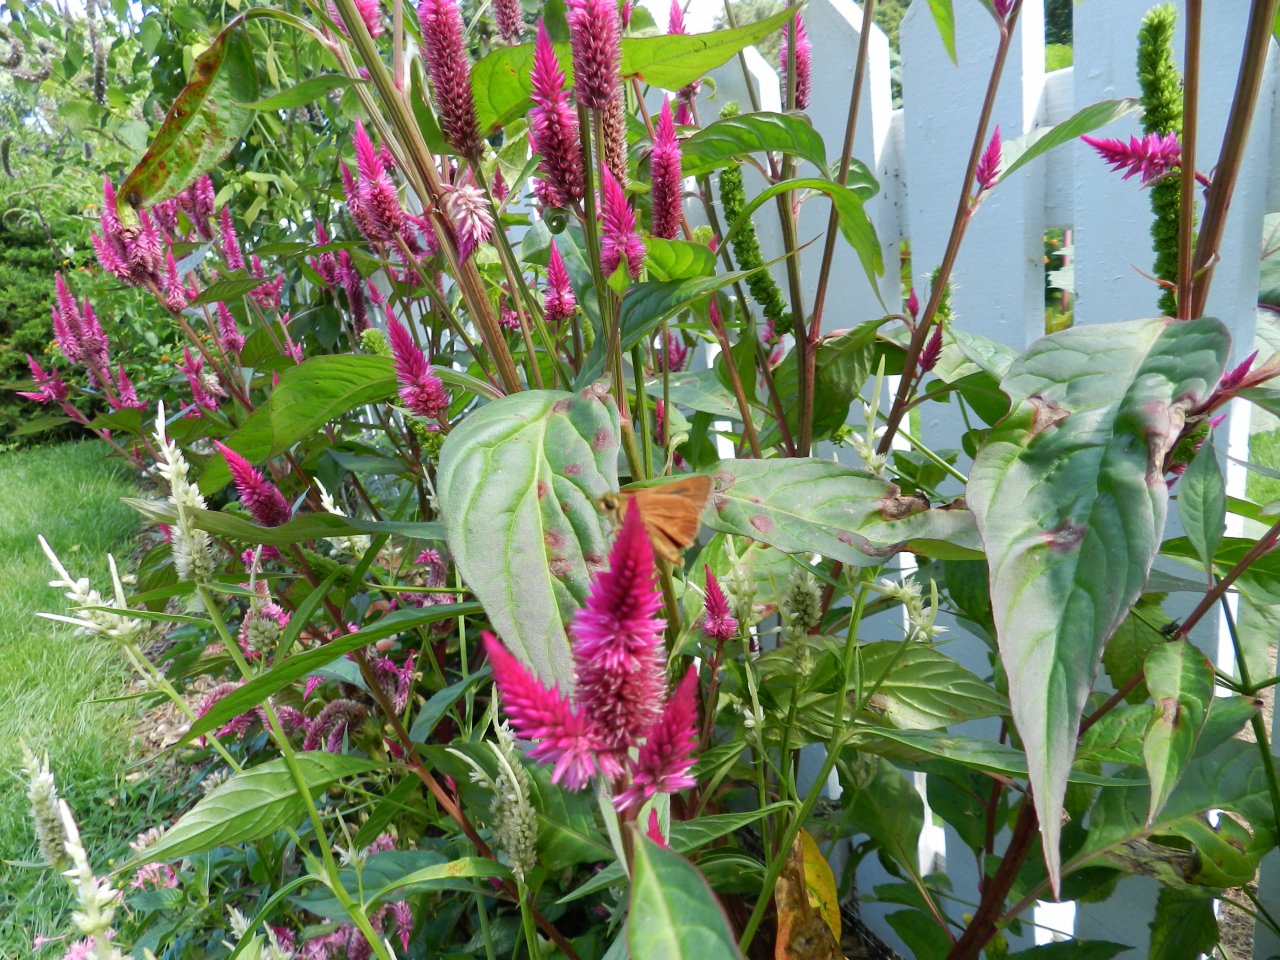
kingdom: Animalia
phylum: Arthropoda
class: Insecta
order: Lepidoptera
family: Hesperiidae
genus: Wallengrenia
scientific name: Wallengrenia otho
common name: Southern Broken-Dash
